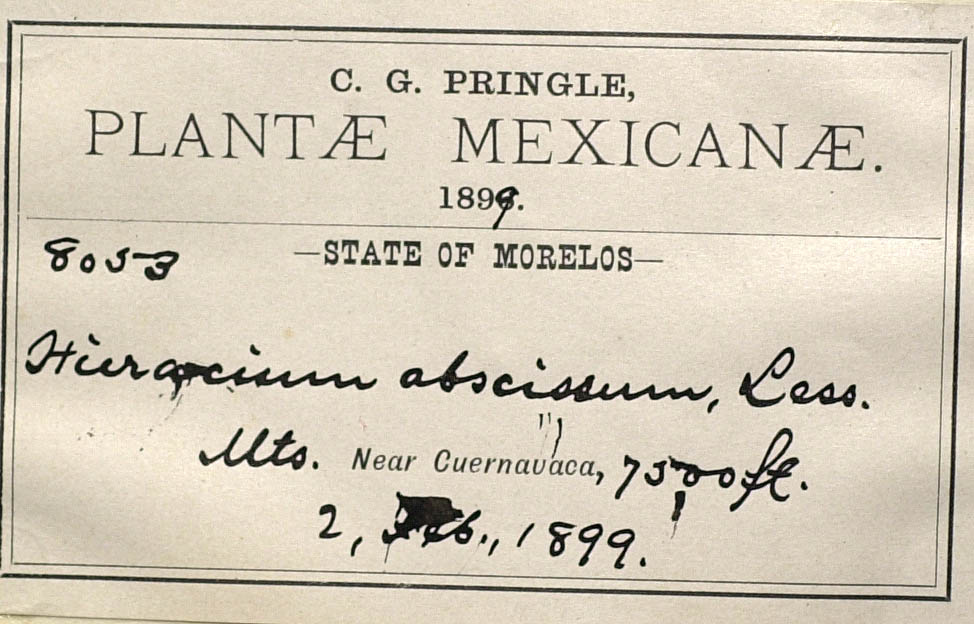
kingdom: Plantae
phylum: Tracheophyta
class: Magnoliopsida
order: Asterales
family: Asteraceae
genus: Hieracium
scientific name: Hieracium abscissum
